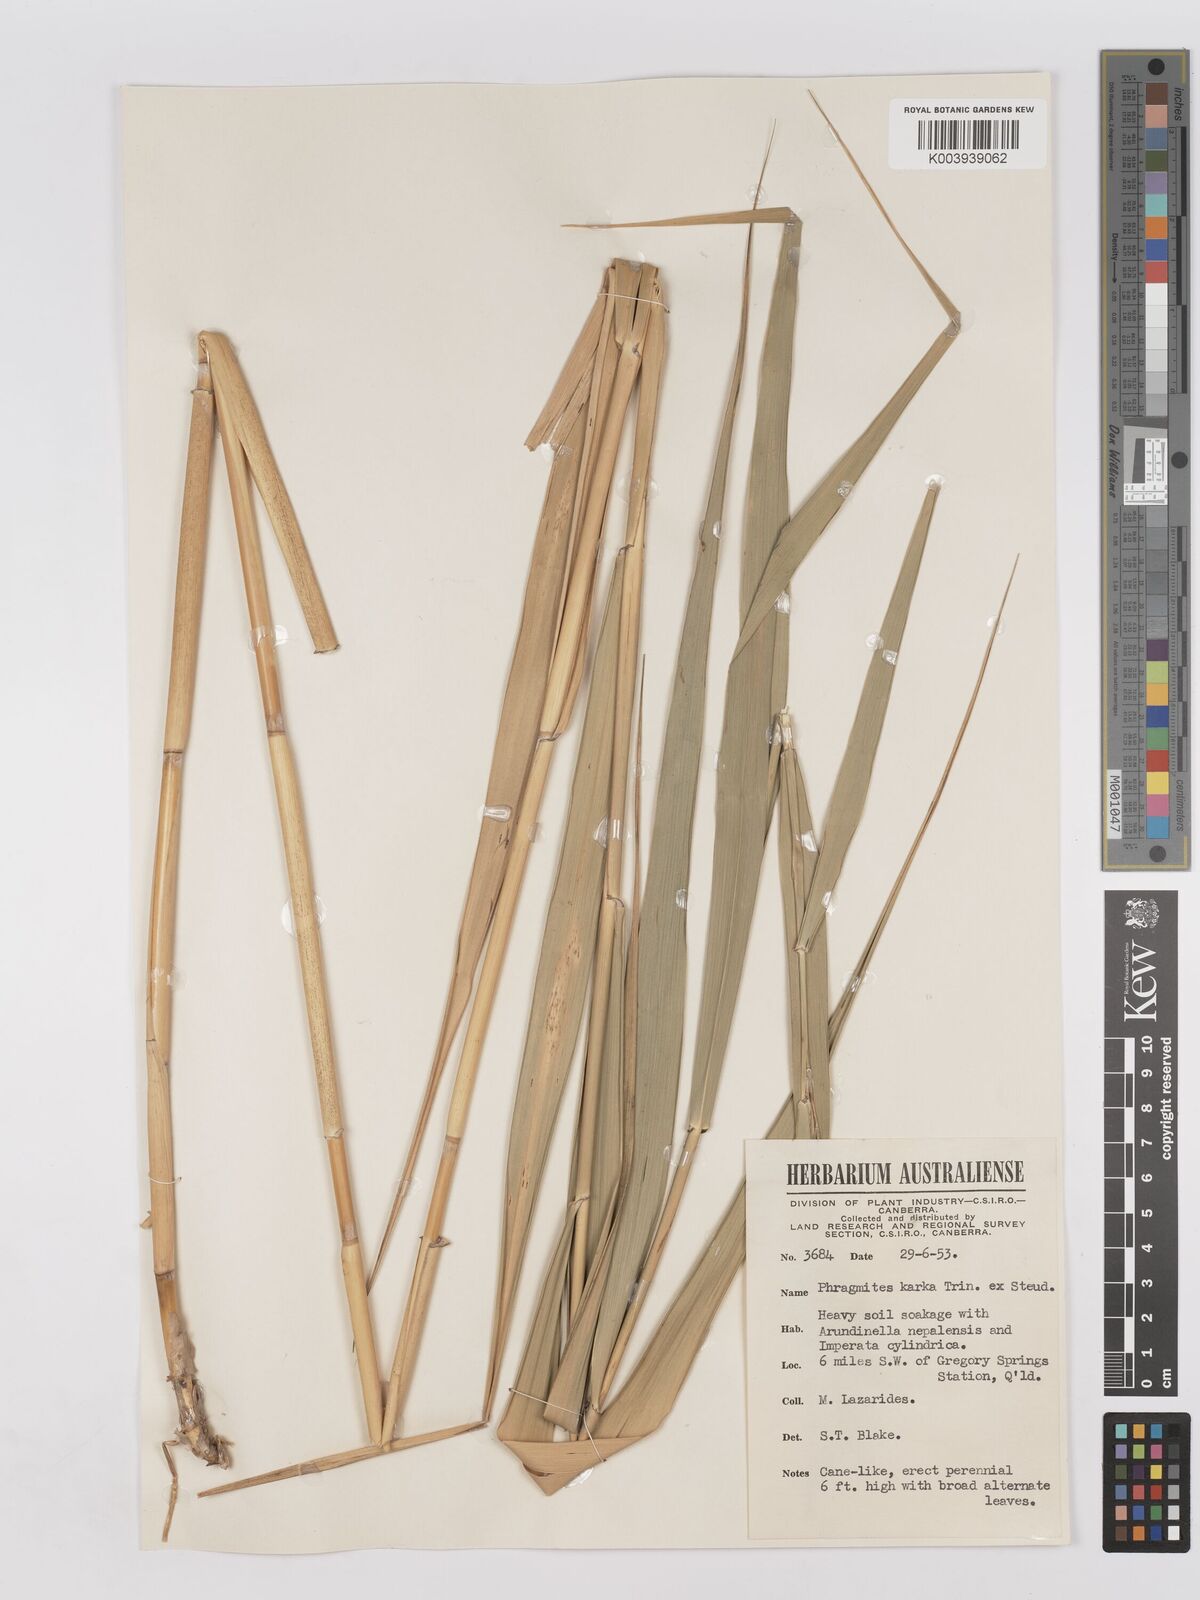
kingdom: Plantae
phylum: Tracheophyta
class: Liliopsida
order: Poales
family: Poaceae
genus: Phragmites
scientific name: Phragmites karka
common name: Tropical reed
